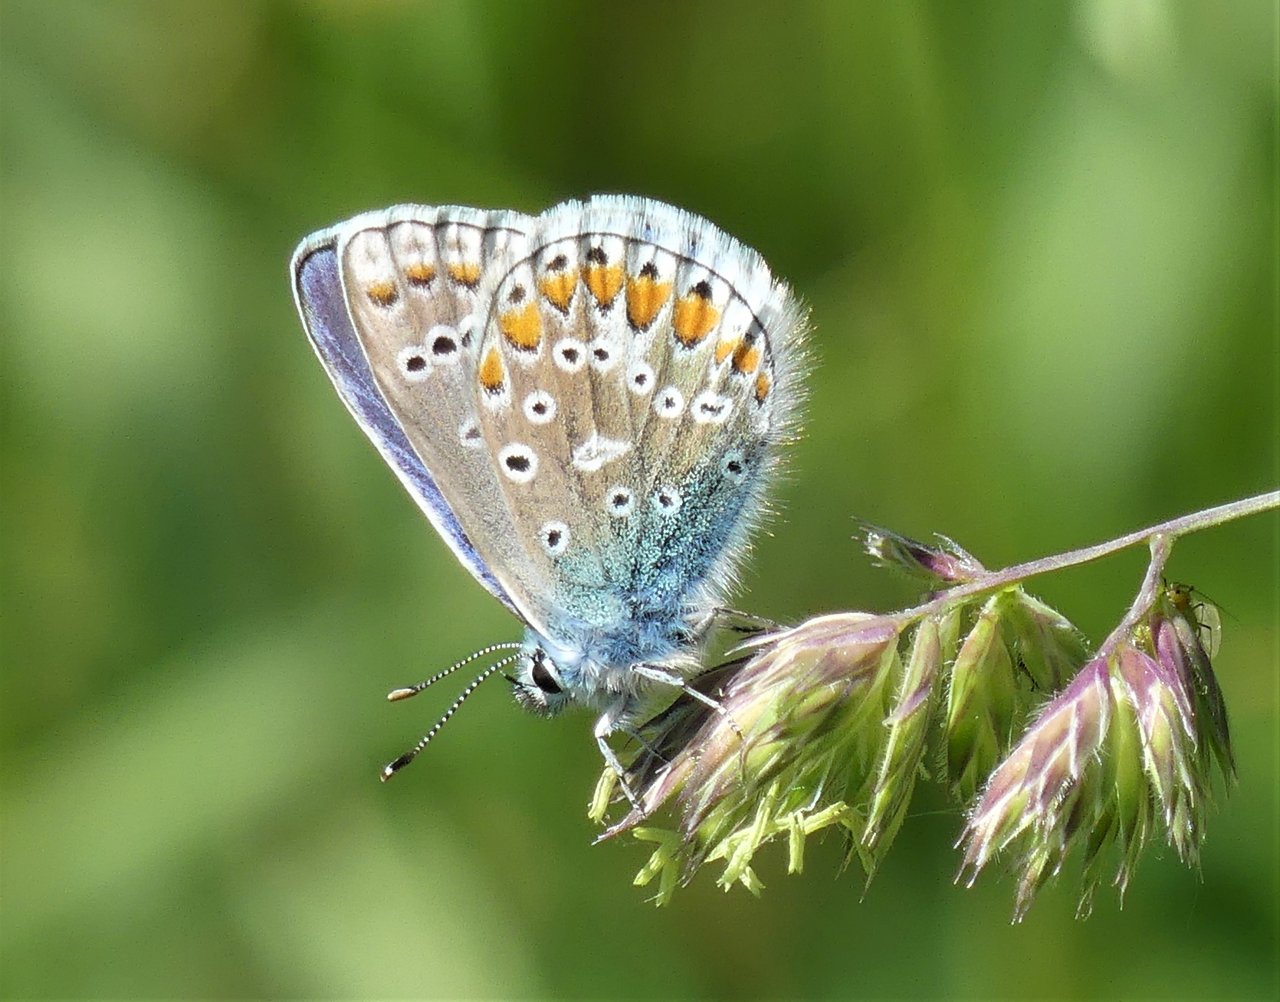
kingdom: Animalia
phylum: Arthropoda
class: Insecta
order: Lepidoptera
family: Lycaenidae
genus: Polyommatus
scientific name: Polyommatus icarus
